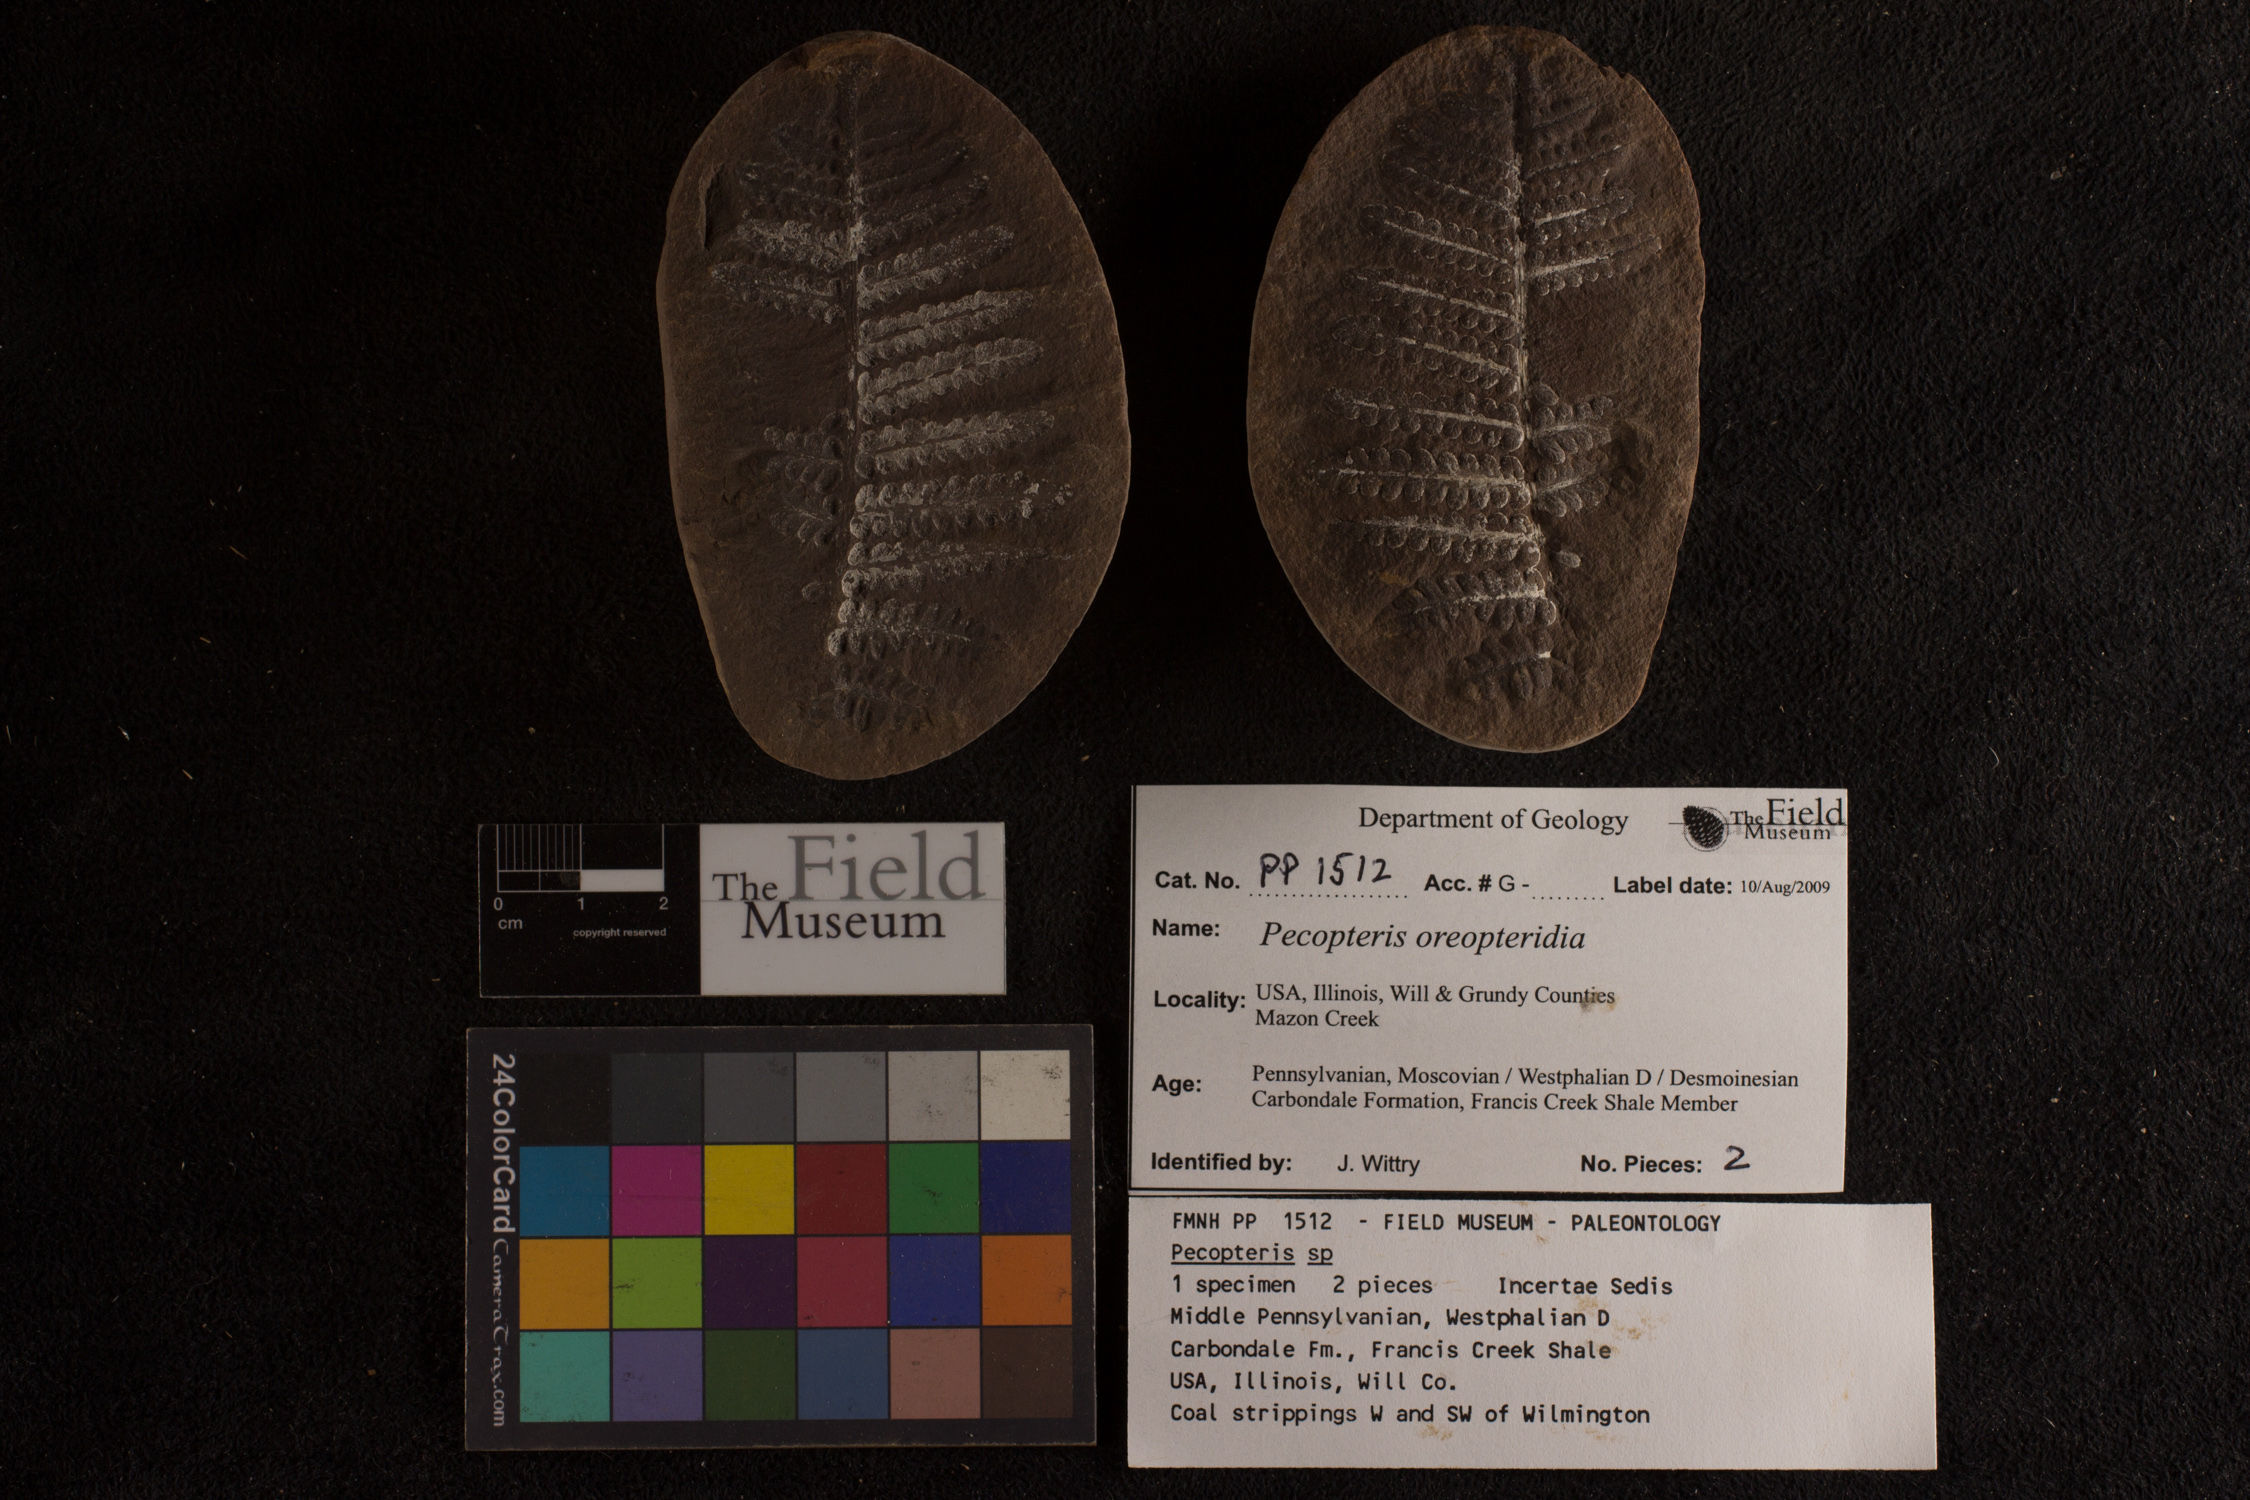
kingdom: Plantae
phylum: Tracheophyta
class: Polypodiopsida
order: Marattiales
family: Asterothecaceae
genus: Pecopteris
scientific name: Pecopteris
